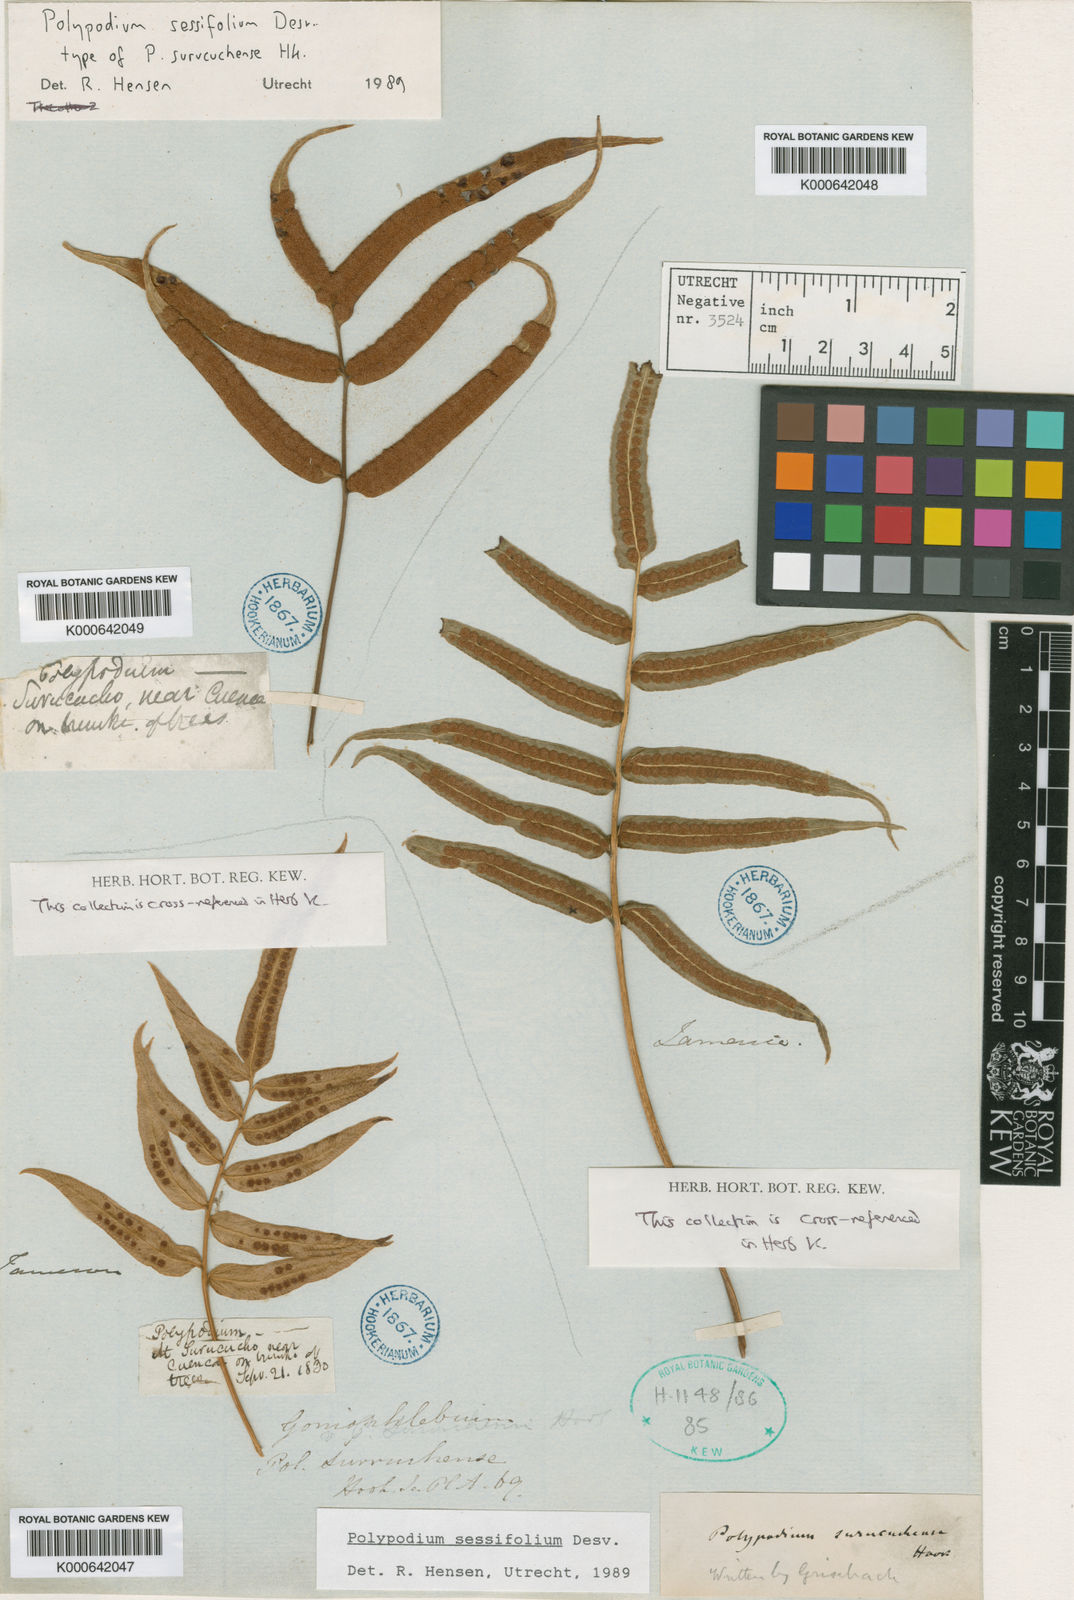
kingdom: Plantae
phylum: Tracheophyta
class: Polypodiopsida
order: Polypodiales
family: Polypodiaceae
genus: Polypodium
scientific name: Polypodium
